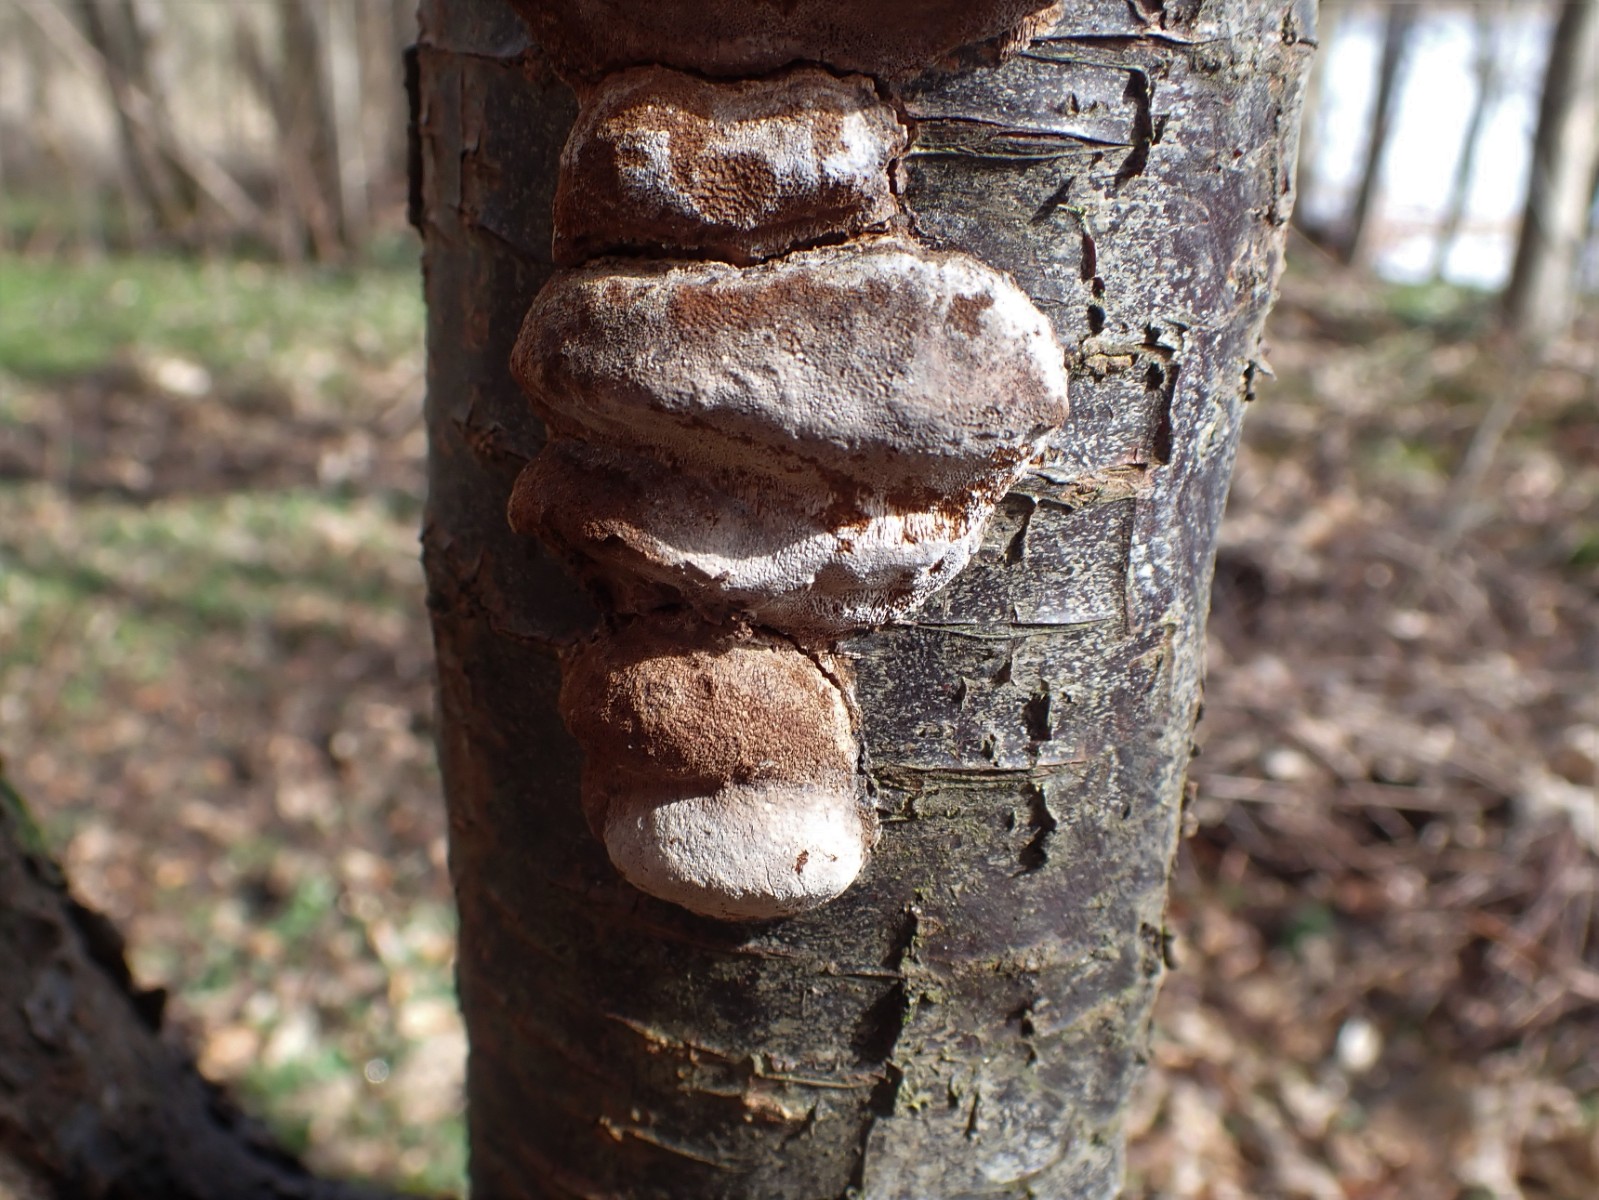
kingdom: Fungi
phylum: Basidiomycota
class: Agaricomycetes
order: Hymenochaetales
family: Hymenochaetaceae
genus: Phellinus
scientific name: Phellinus pomaceus
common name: blomme-ildporesvamp
